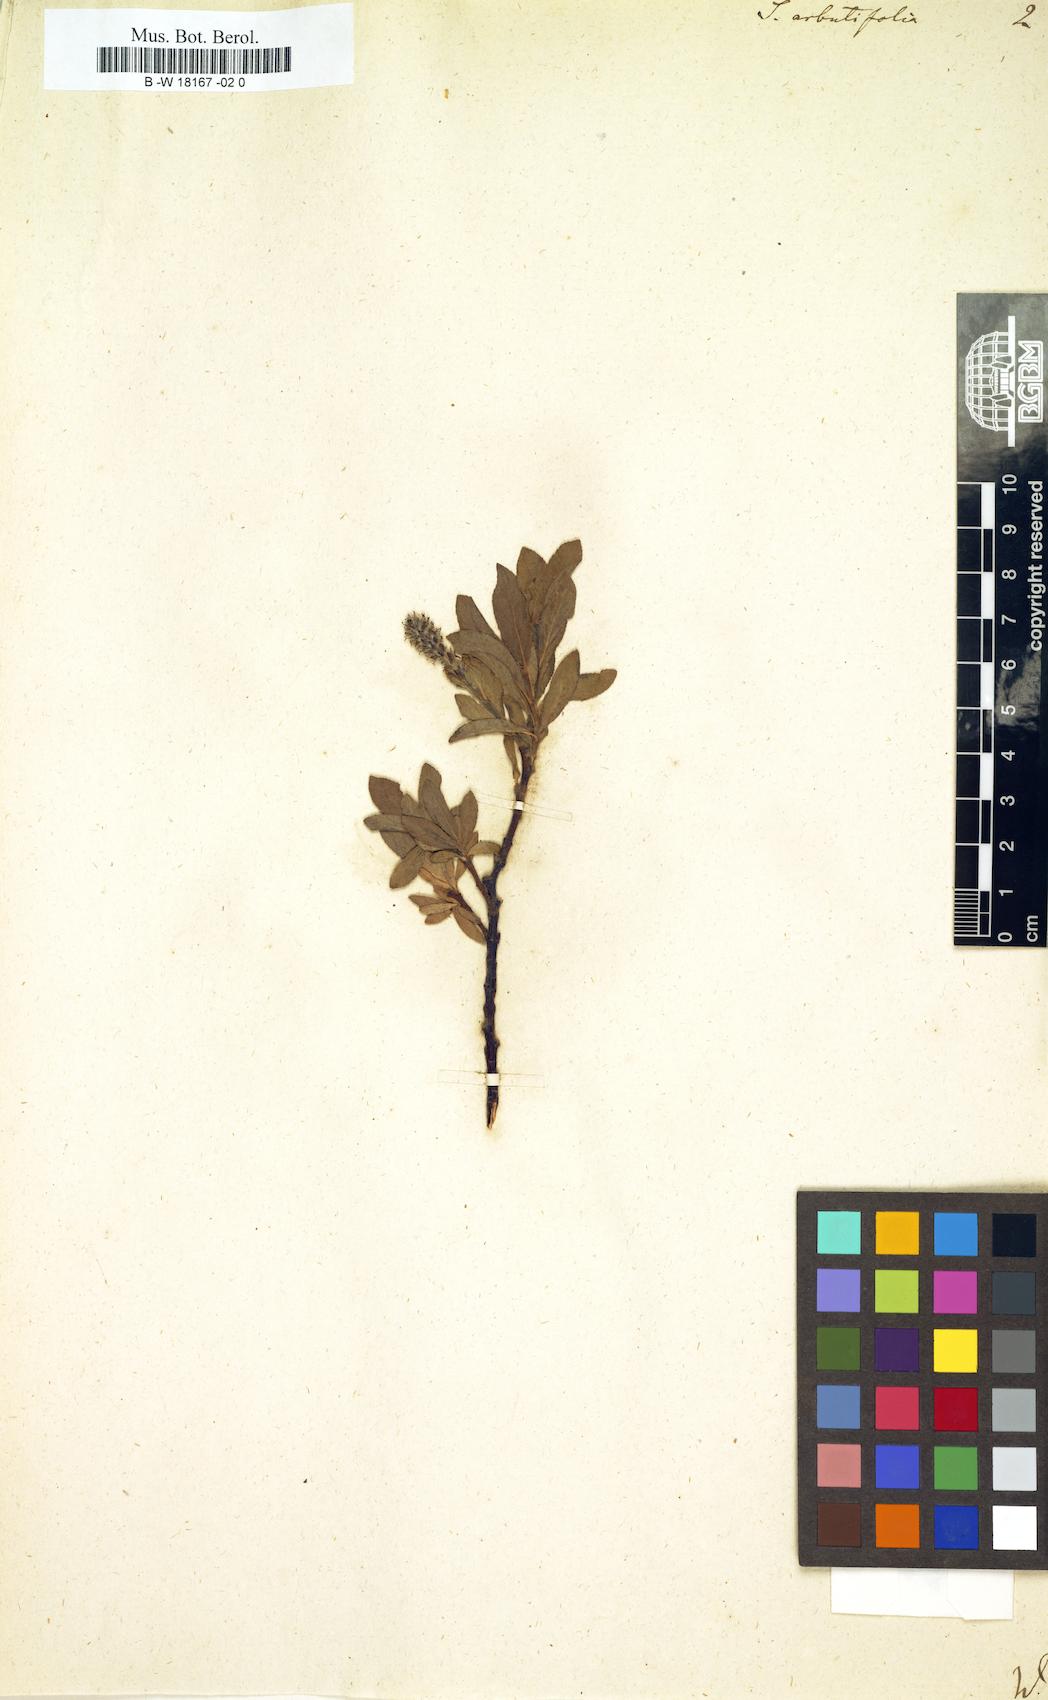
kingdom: Plantae
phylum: Tracheophyta
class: Magnoliopsida
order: Malpighiales
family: Salicaceae
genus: Chosenia
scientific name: Chosenia arbutifolia
